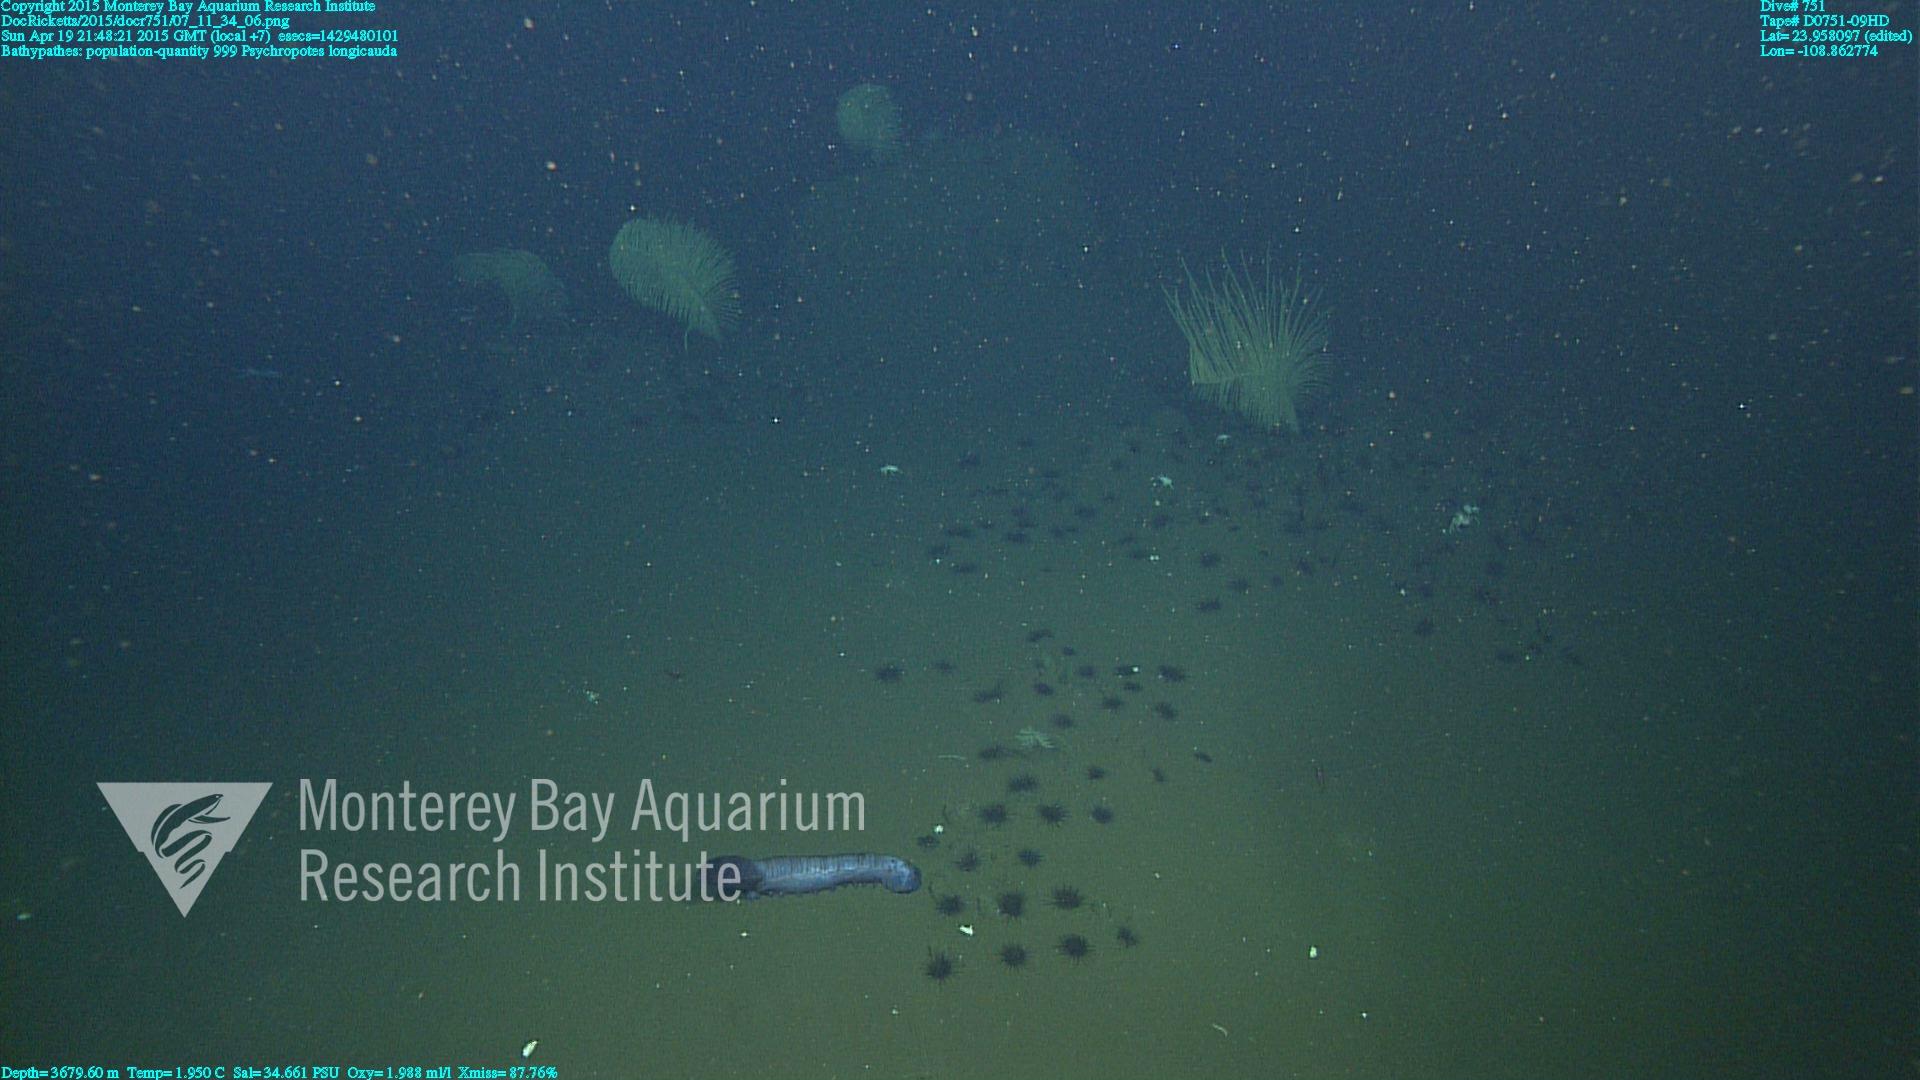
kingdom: Animalia
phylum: Cnidaria
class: Anthozoa
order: Antipatharia
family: Schizopathidae
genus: Bathypathes
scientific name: Bathypathes
